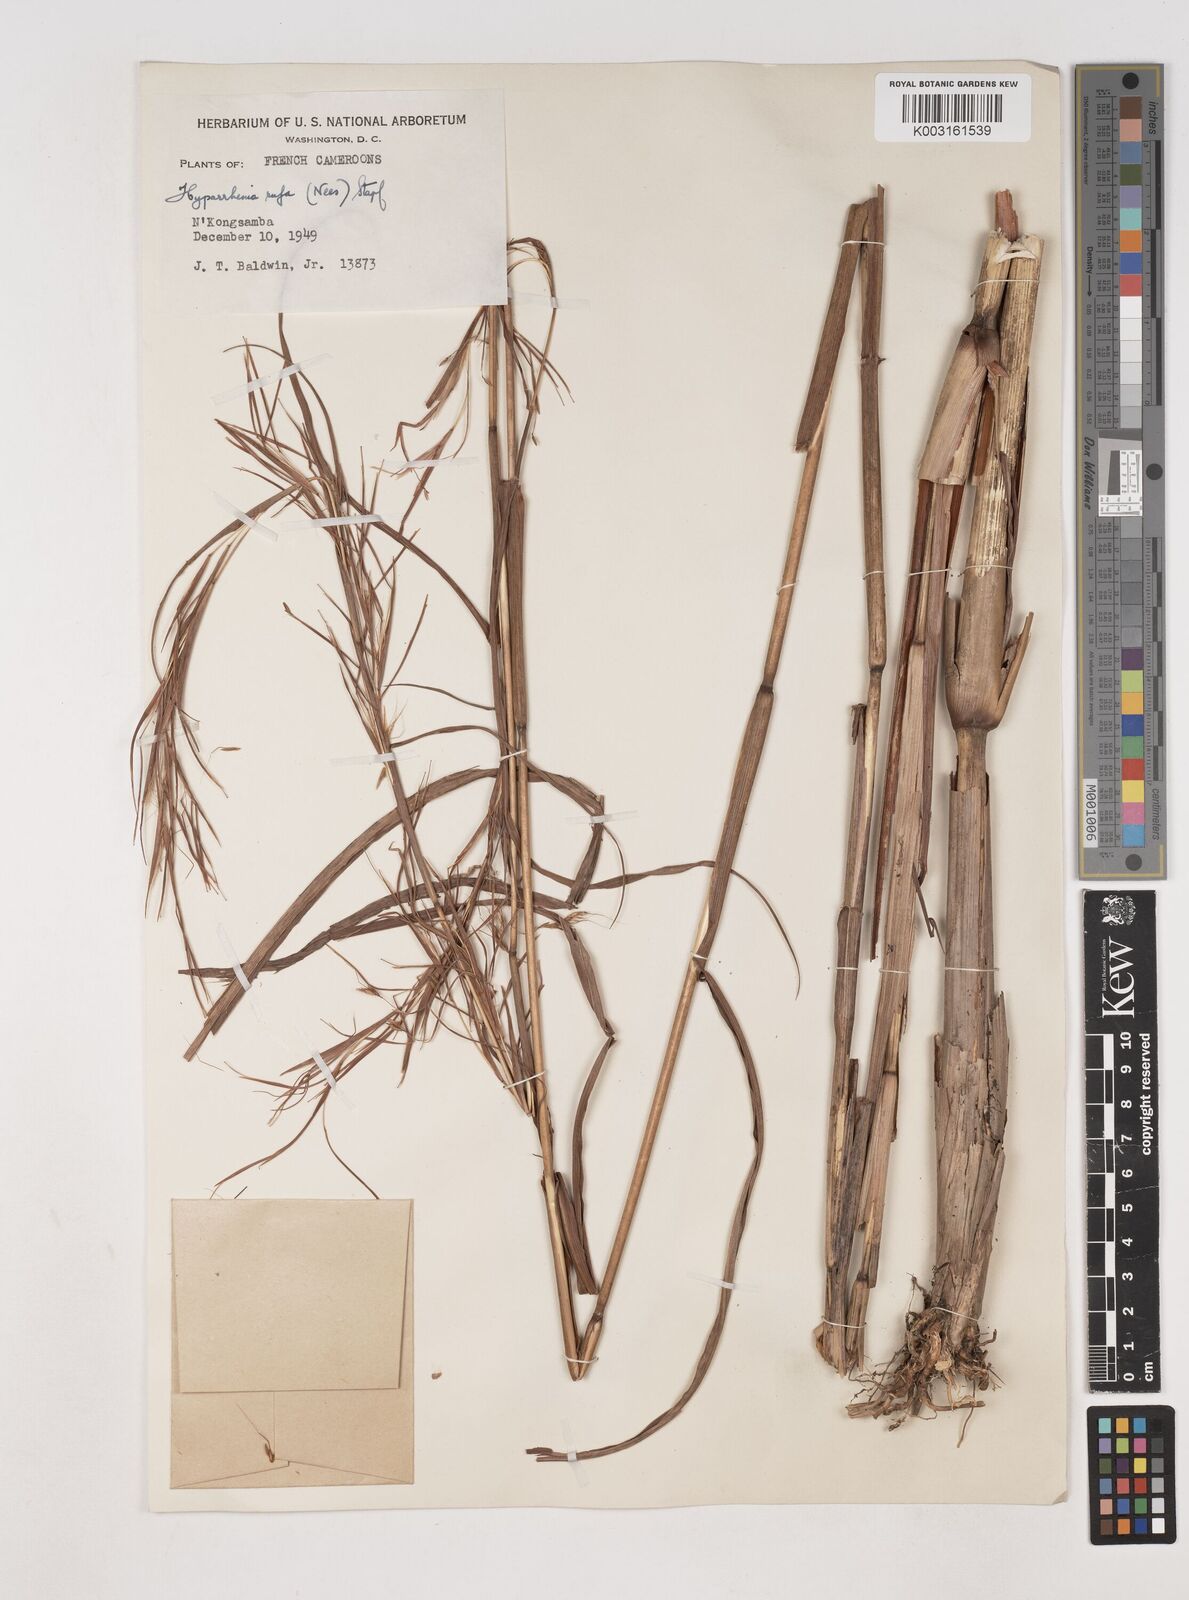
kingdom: Plantae
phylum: Tracheophyta
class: Liliopsida
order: Poales
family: Poaceae
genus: Hyparrhenia
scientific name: Hyparrhenia rufa
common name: Jaraguagrass
